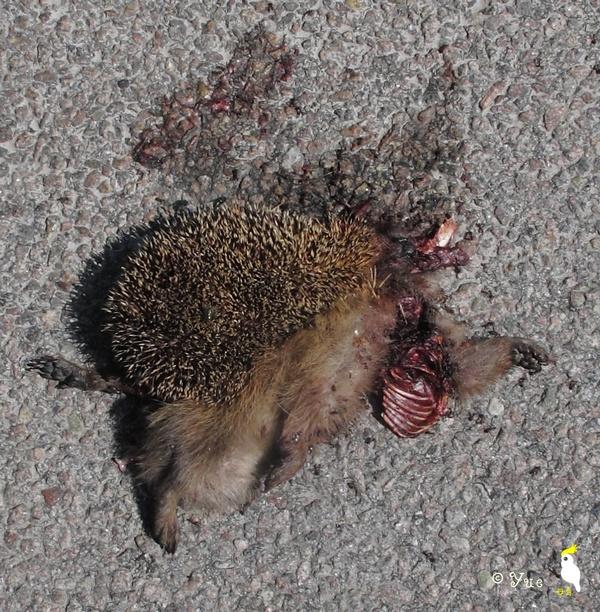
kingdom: Animalia
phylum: Chordata
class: Mammalia
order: Erinaceomorpha
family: Erinaceidae
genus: Erinaceus
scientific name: Erinaceus
